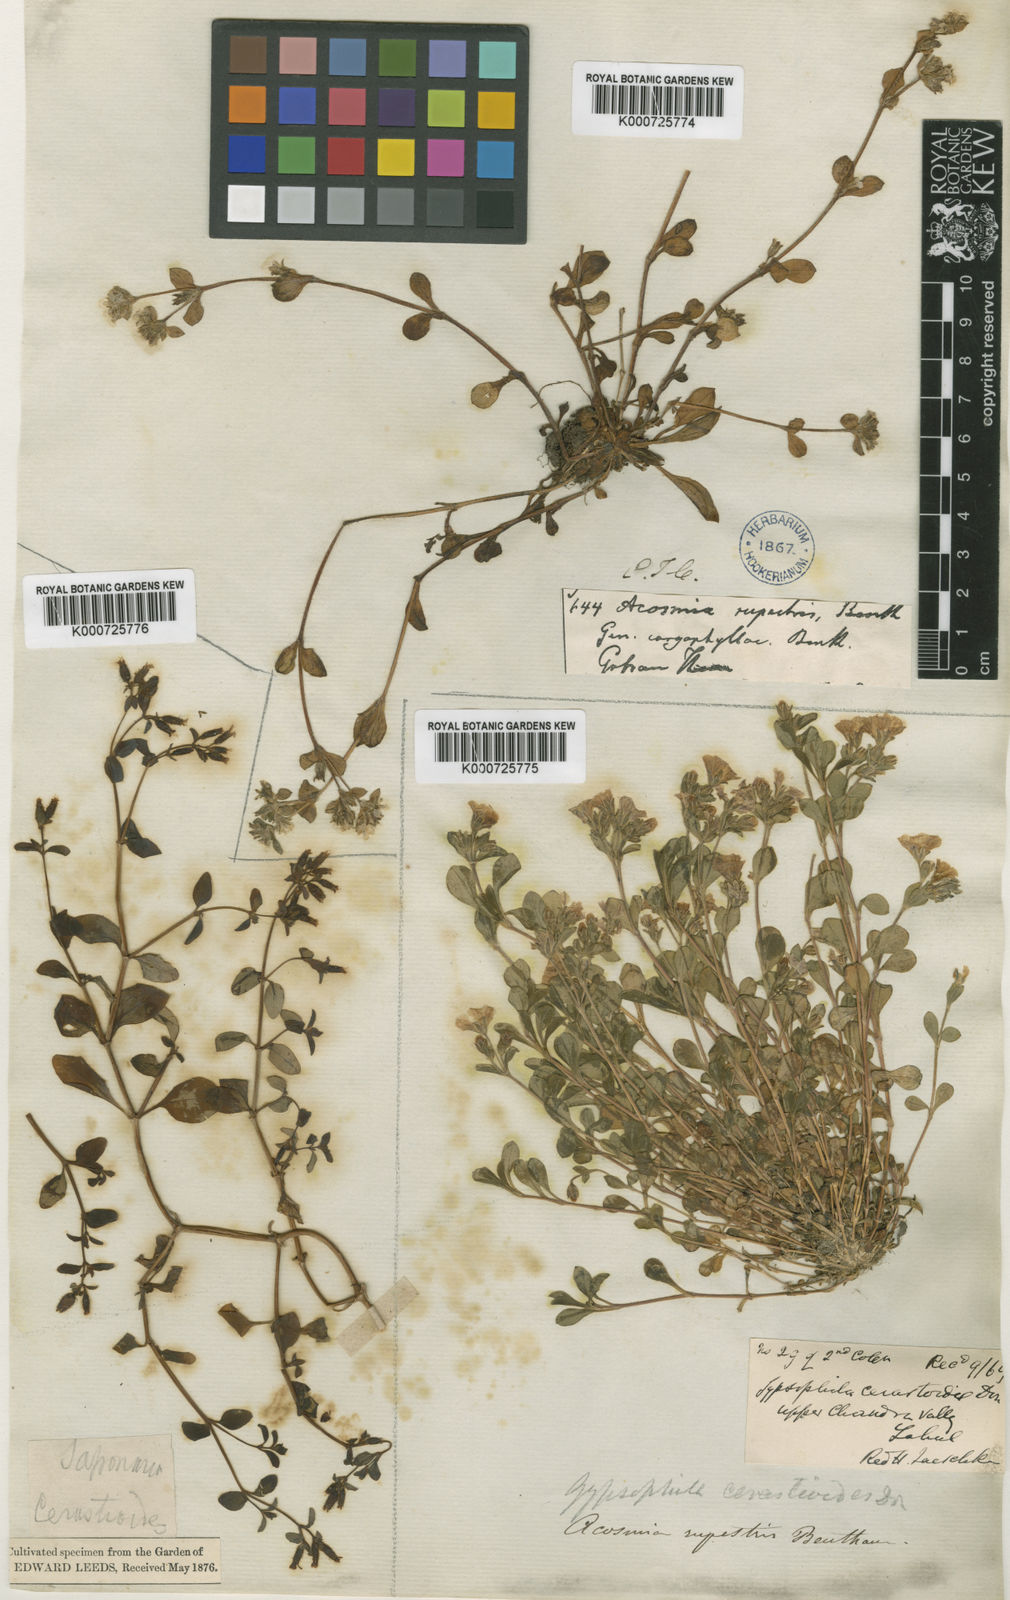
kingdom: Plantae
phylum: Tracheophyta
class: Magnoliopsida
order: Caryophyllales
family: Caryophyllaceae
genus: Acanthophyllum
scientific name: Acanthophyllum cerastioides
